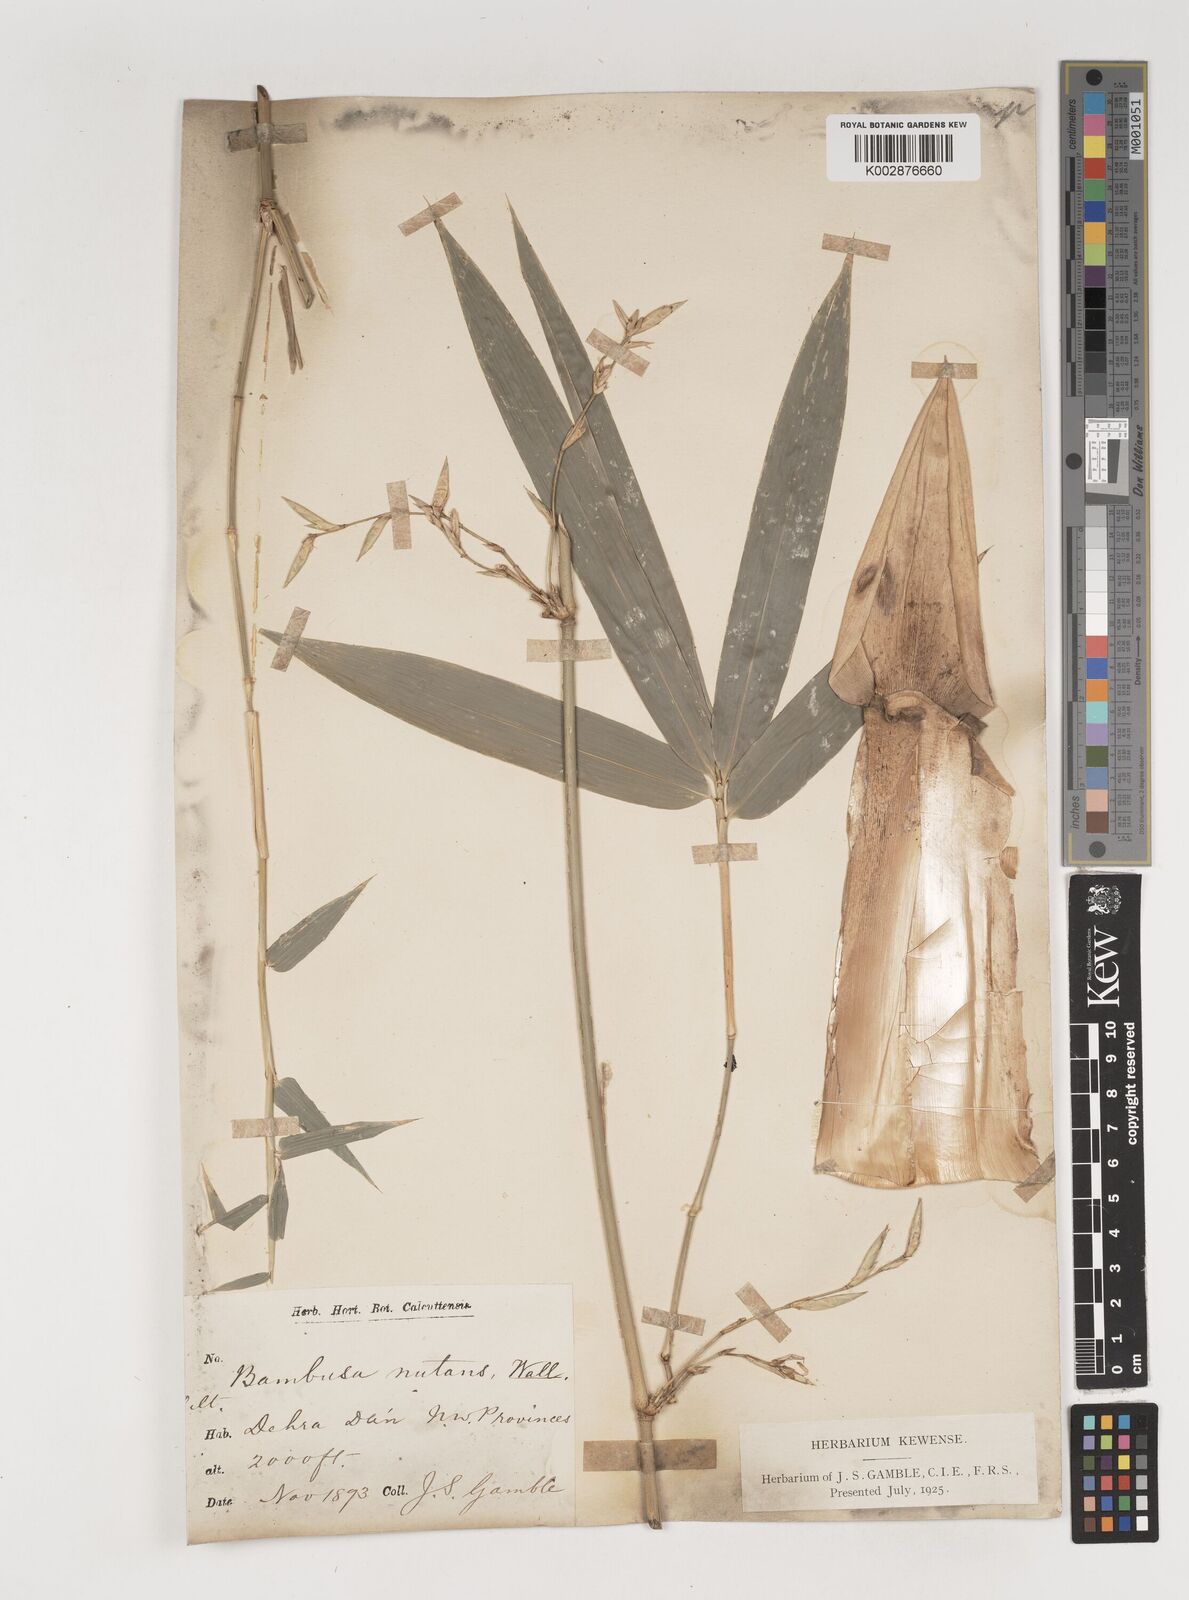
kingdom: Plantae
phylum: Tracheophyta
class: Liliopsida
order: Poales
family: Poaceae
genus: Bambusa
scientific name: Bambusa nutans
